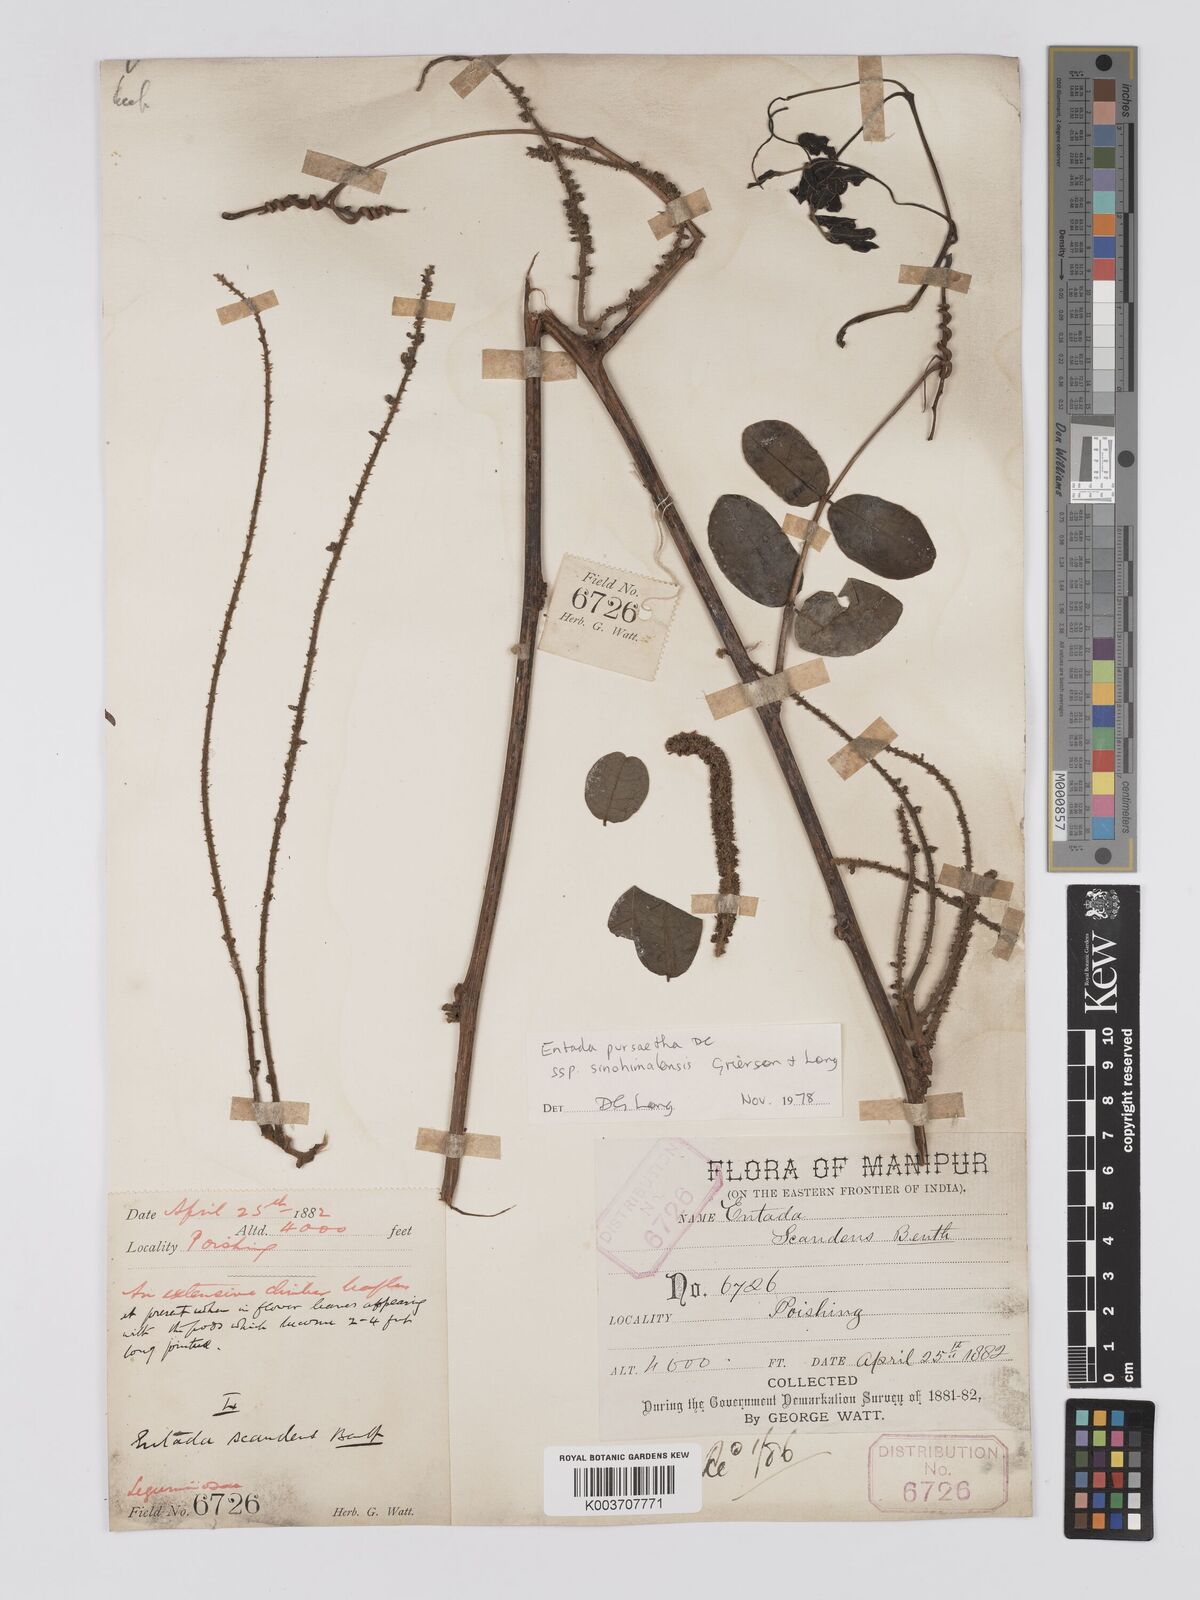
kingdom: Plantae
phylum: Tracheophyta
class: Magnoliopsida
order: Fabales
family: Fabaceae
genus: Entada
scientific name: Entada
